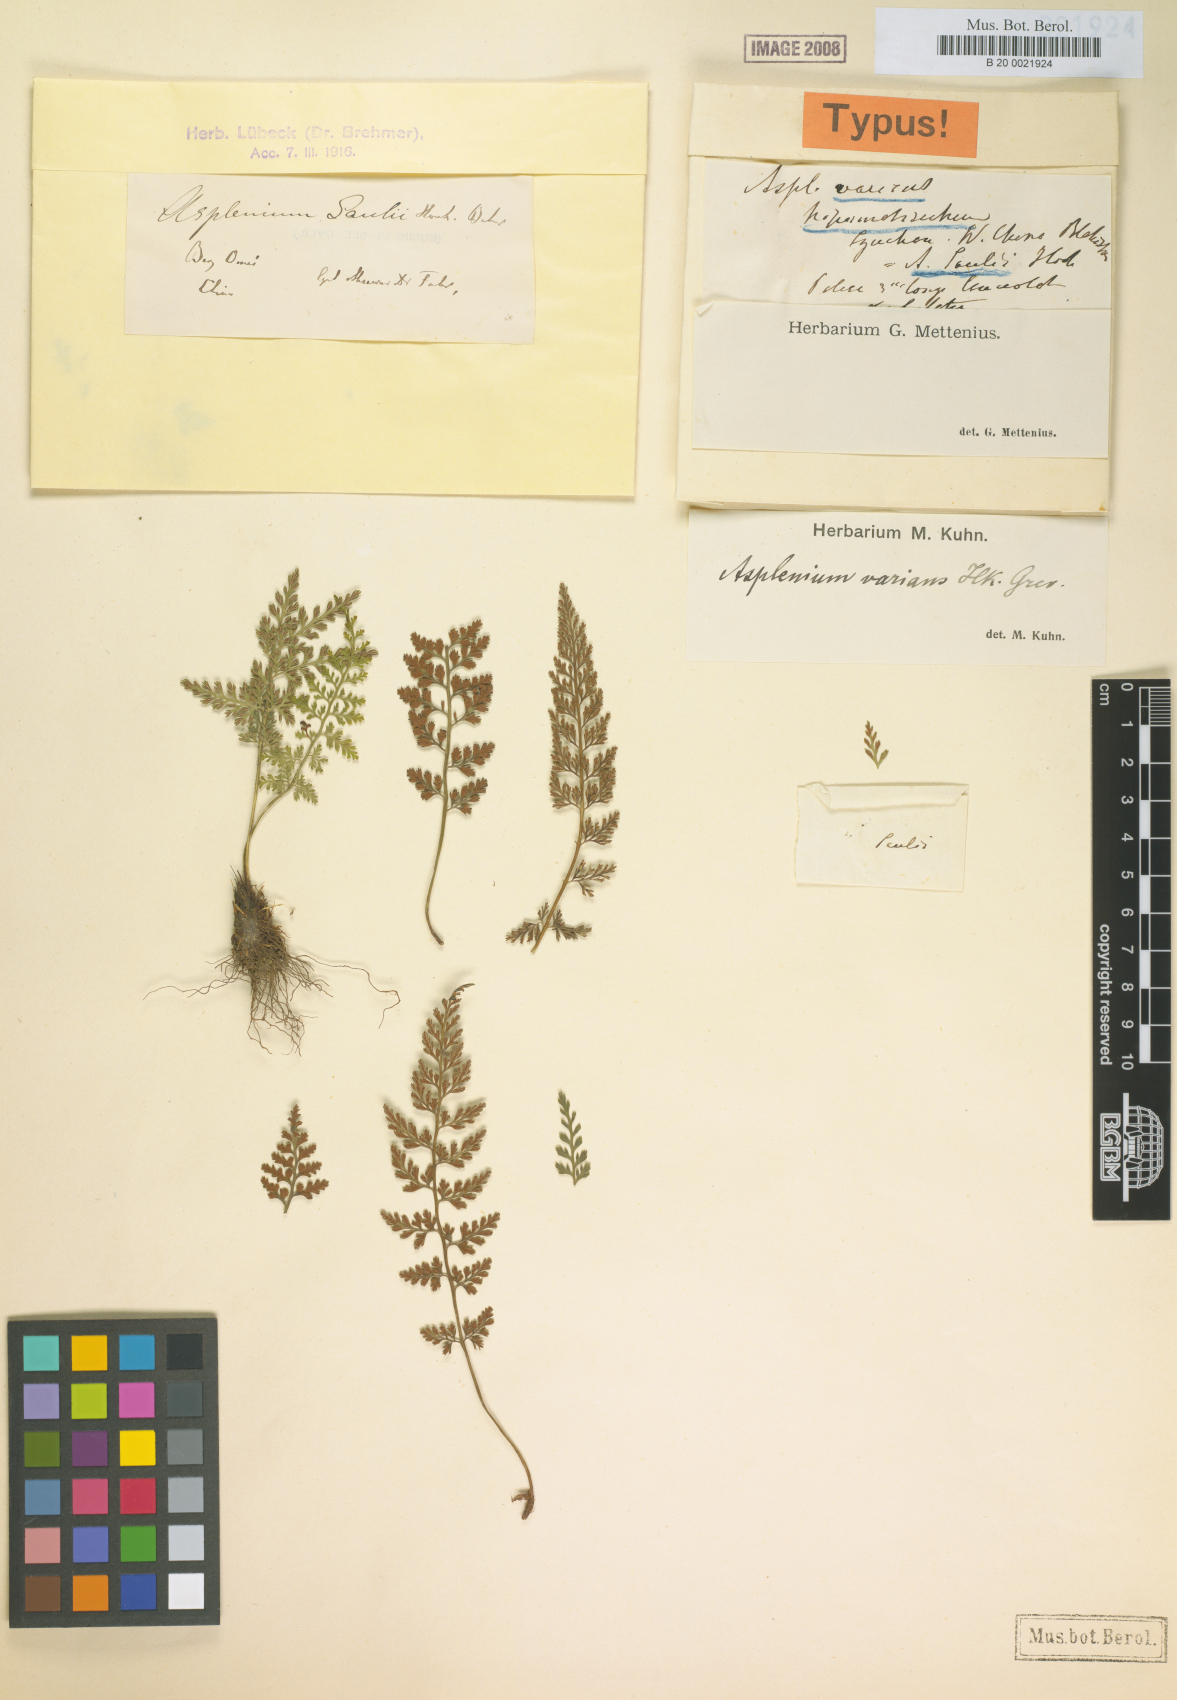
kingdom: Plantae
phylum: Tracheophyta
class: Polypodiopsida
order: Polypodiales
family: Aspleniaceae
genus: Asplenium
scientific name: Asplenium laciniatum
